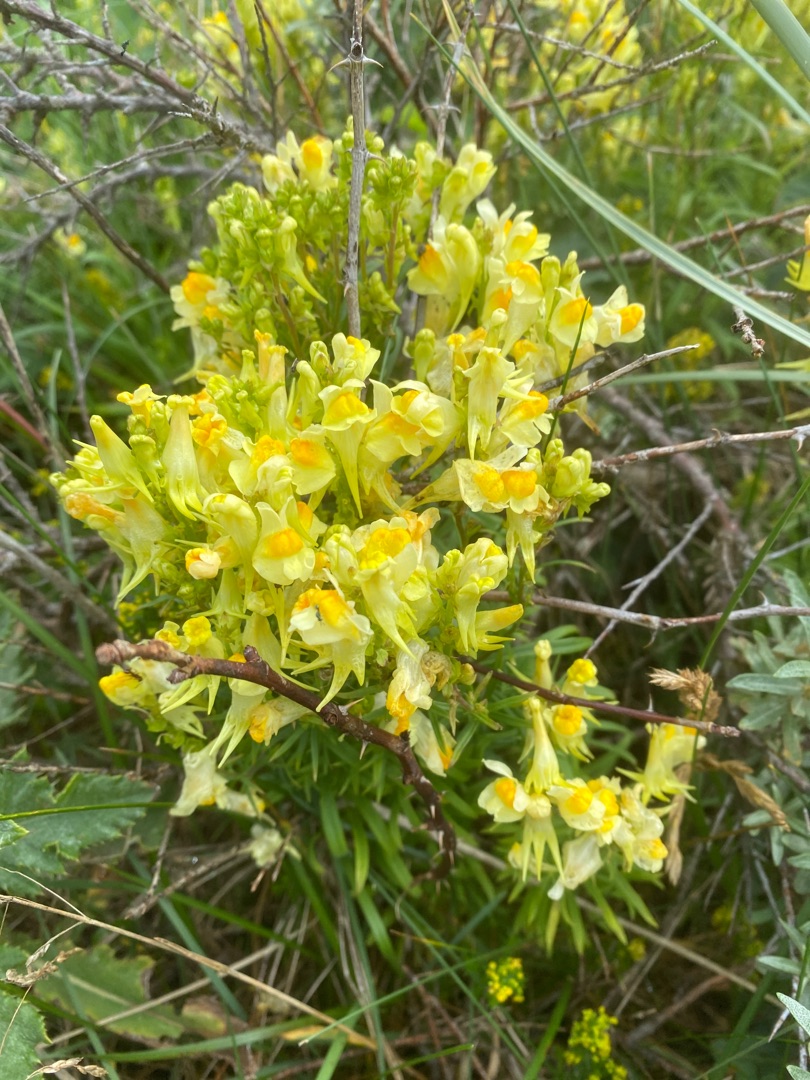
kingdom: Plantae
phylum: Tracheophyta
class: Magnoliopsida
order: Lamiales
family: Plantaginaceae
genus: Linaria
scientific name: Linaria vulgaris
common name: Almindelig torskemund
